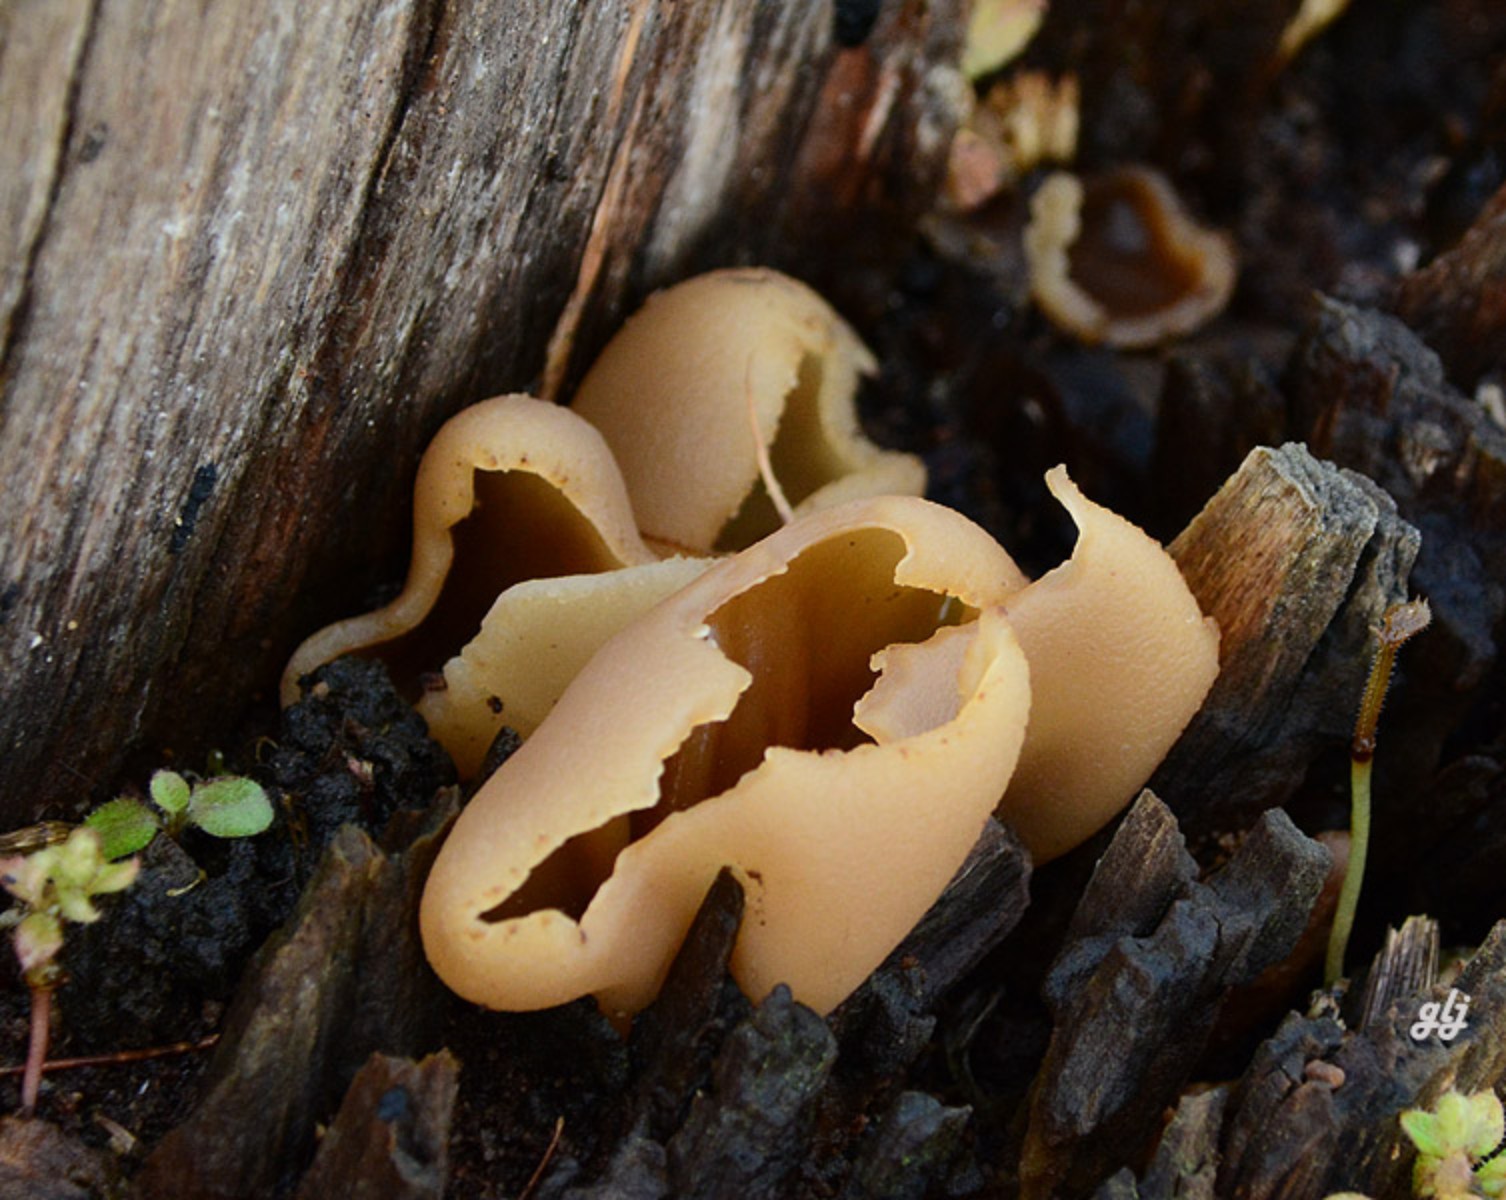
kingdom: Fungi
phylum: Ascomycota
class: Pezizomycetes
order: Pezizales
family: Pezizaceae
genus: Peziza
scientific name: Peziza varia
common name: Ved-bægersvamp
